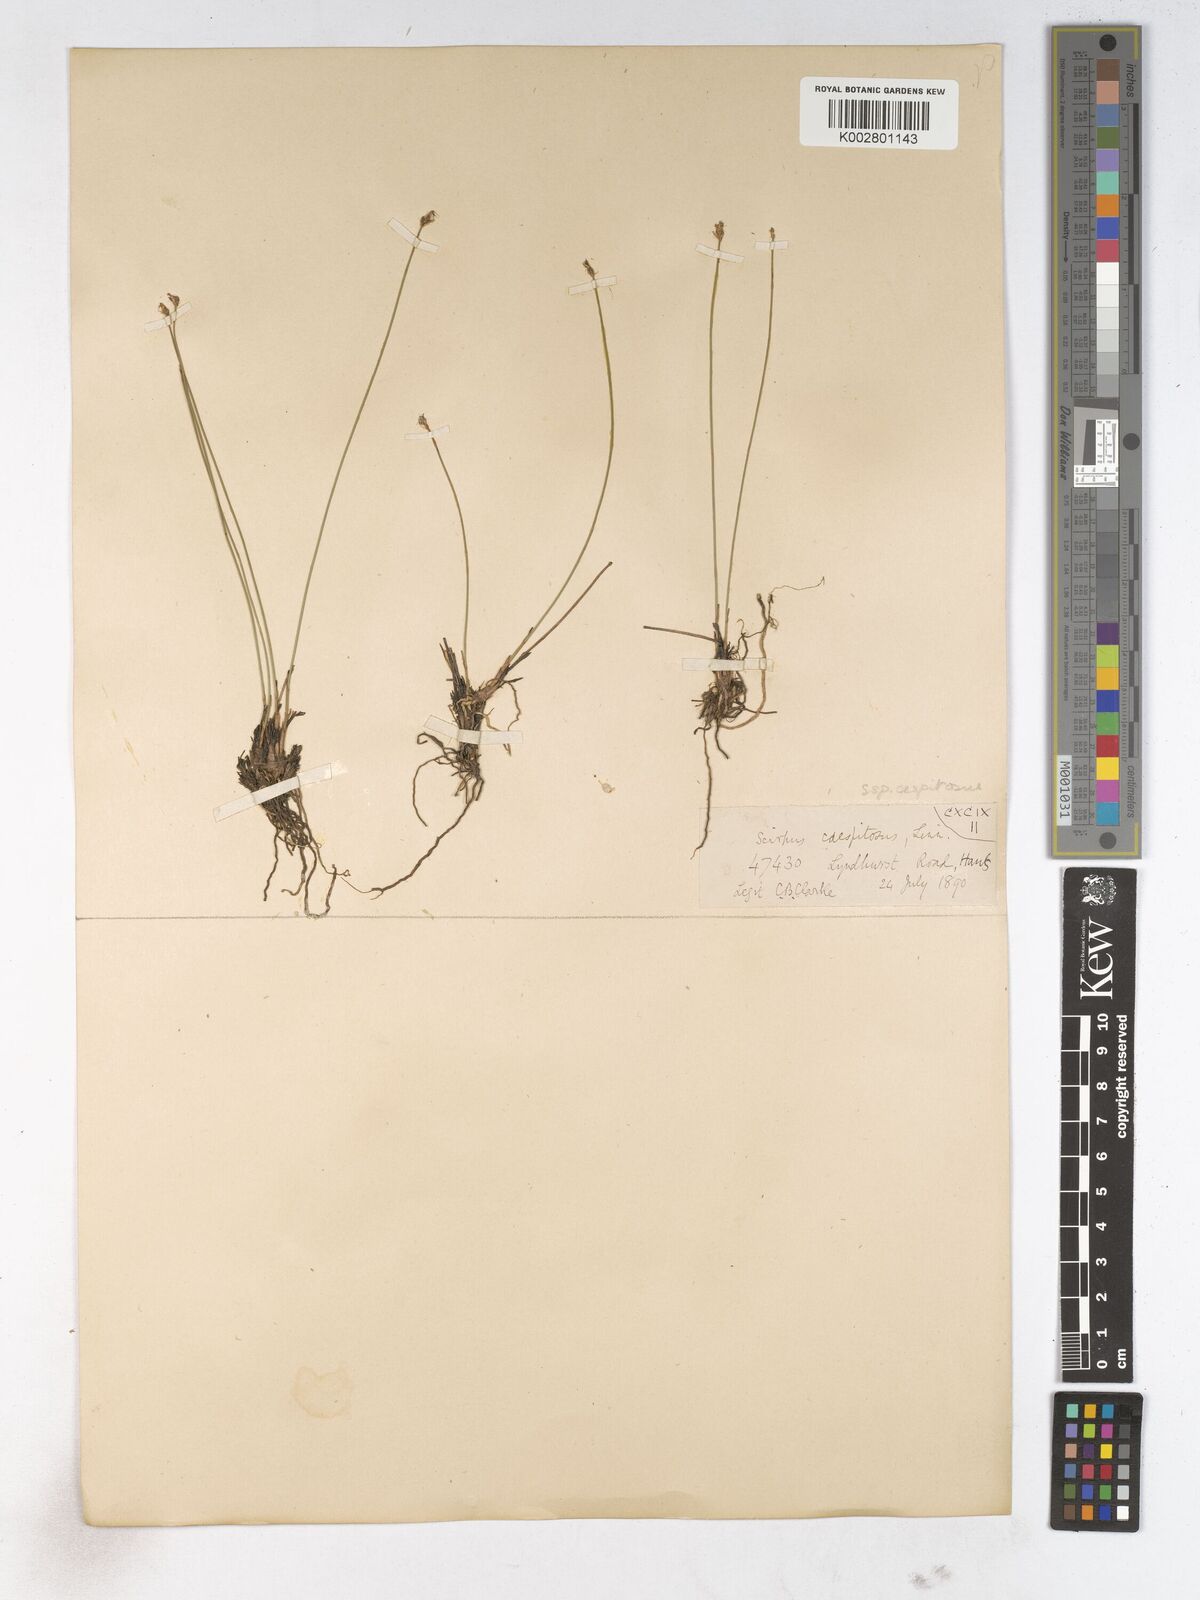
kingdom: Plantae
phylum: Tracheophyta
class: Liliopsida
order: Poales
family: Cyperaceae
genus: Trichophorum
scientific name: Trichophorum cespitosum
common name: Cespitose bulrush
